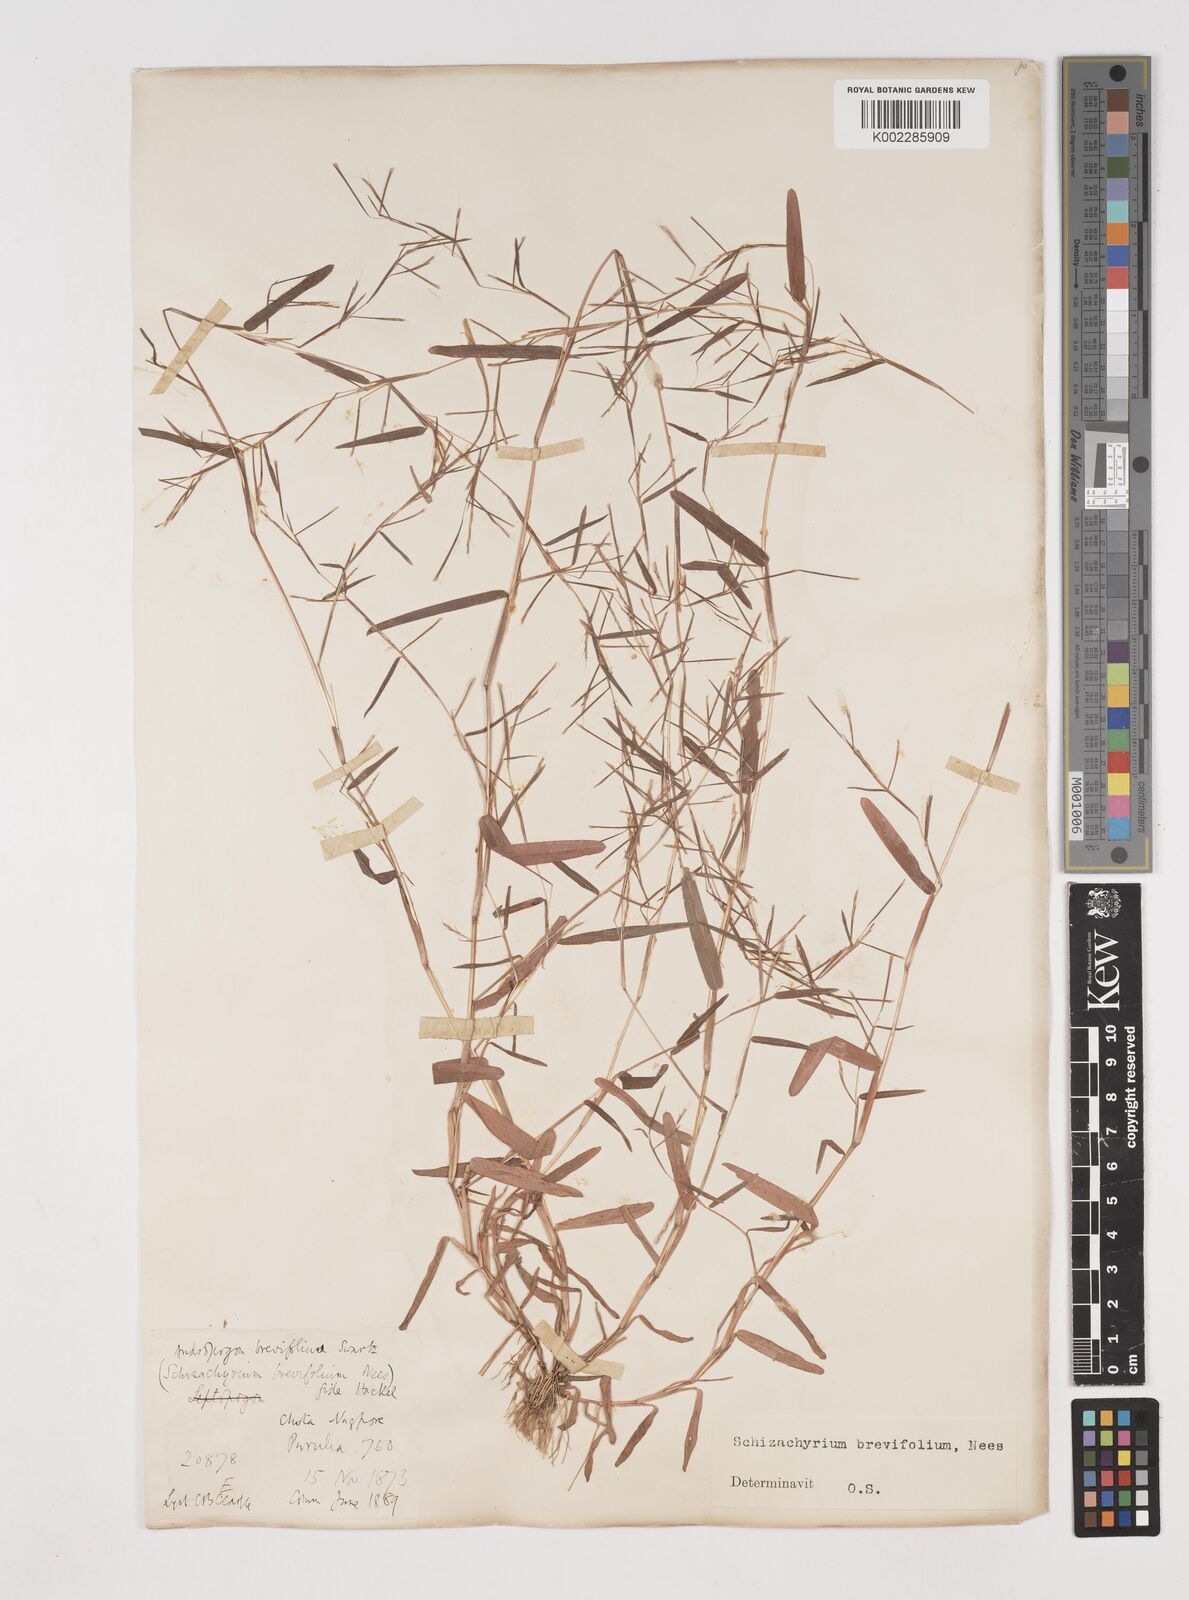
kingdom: Plantae
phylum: Tracheophyta
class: Liliopsida
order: Poales
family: Poaceae
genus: Schizachyrium
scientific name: Schizachyrium brevifolium
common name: Serillo dulce
